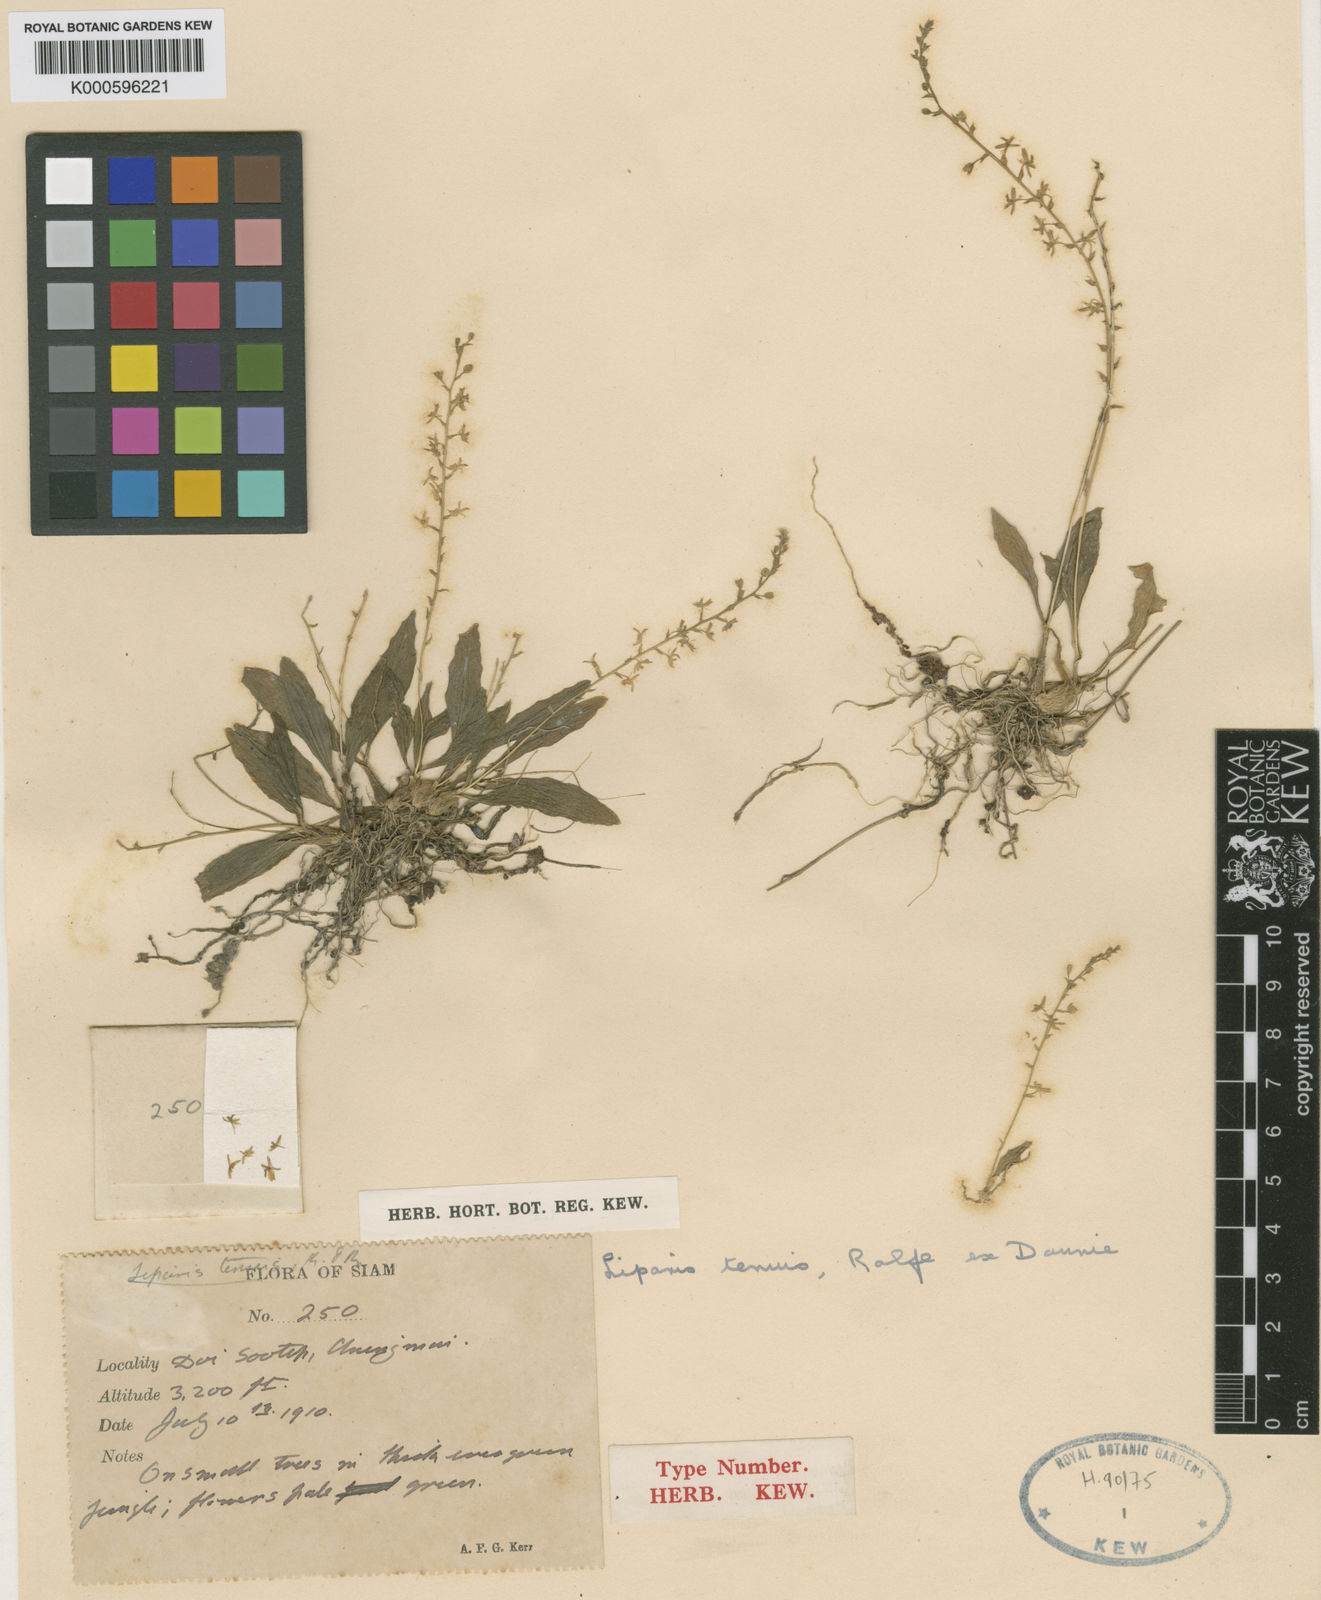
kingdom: Plantae
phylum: Tracheophyta
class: Liliopsida
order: Asparagales
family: Orchidaceae
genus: Liparis
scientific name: Liparis tenuis
